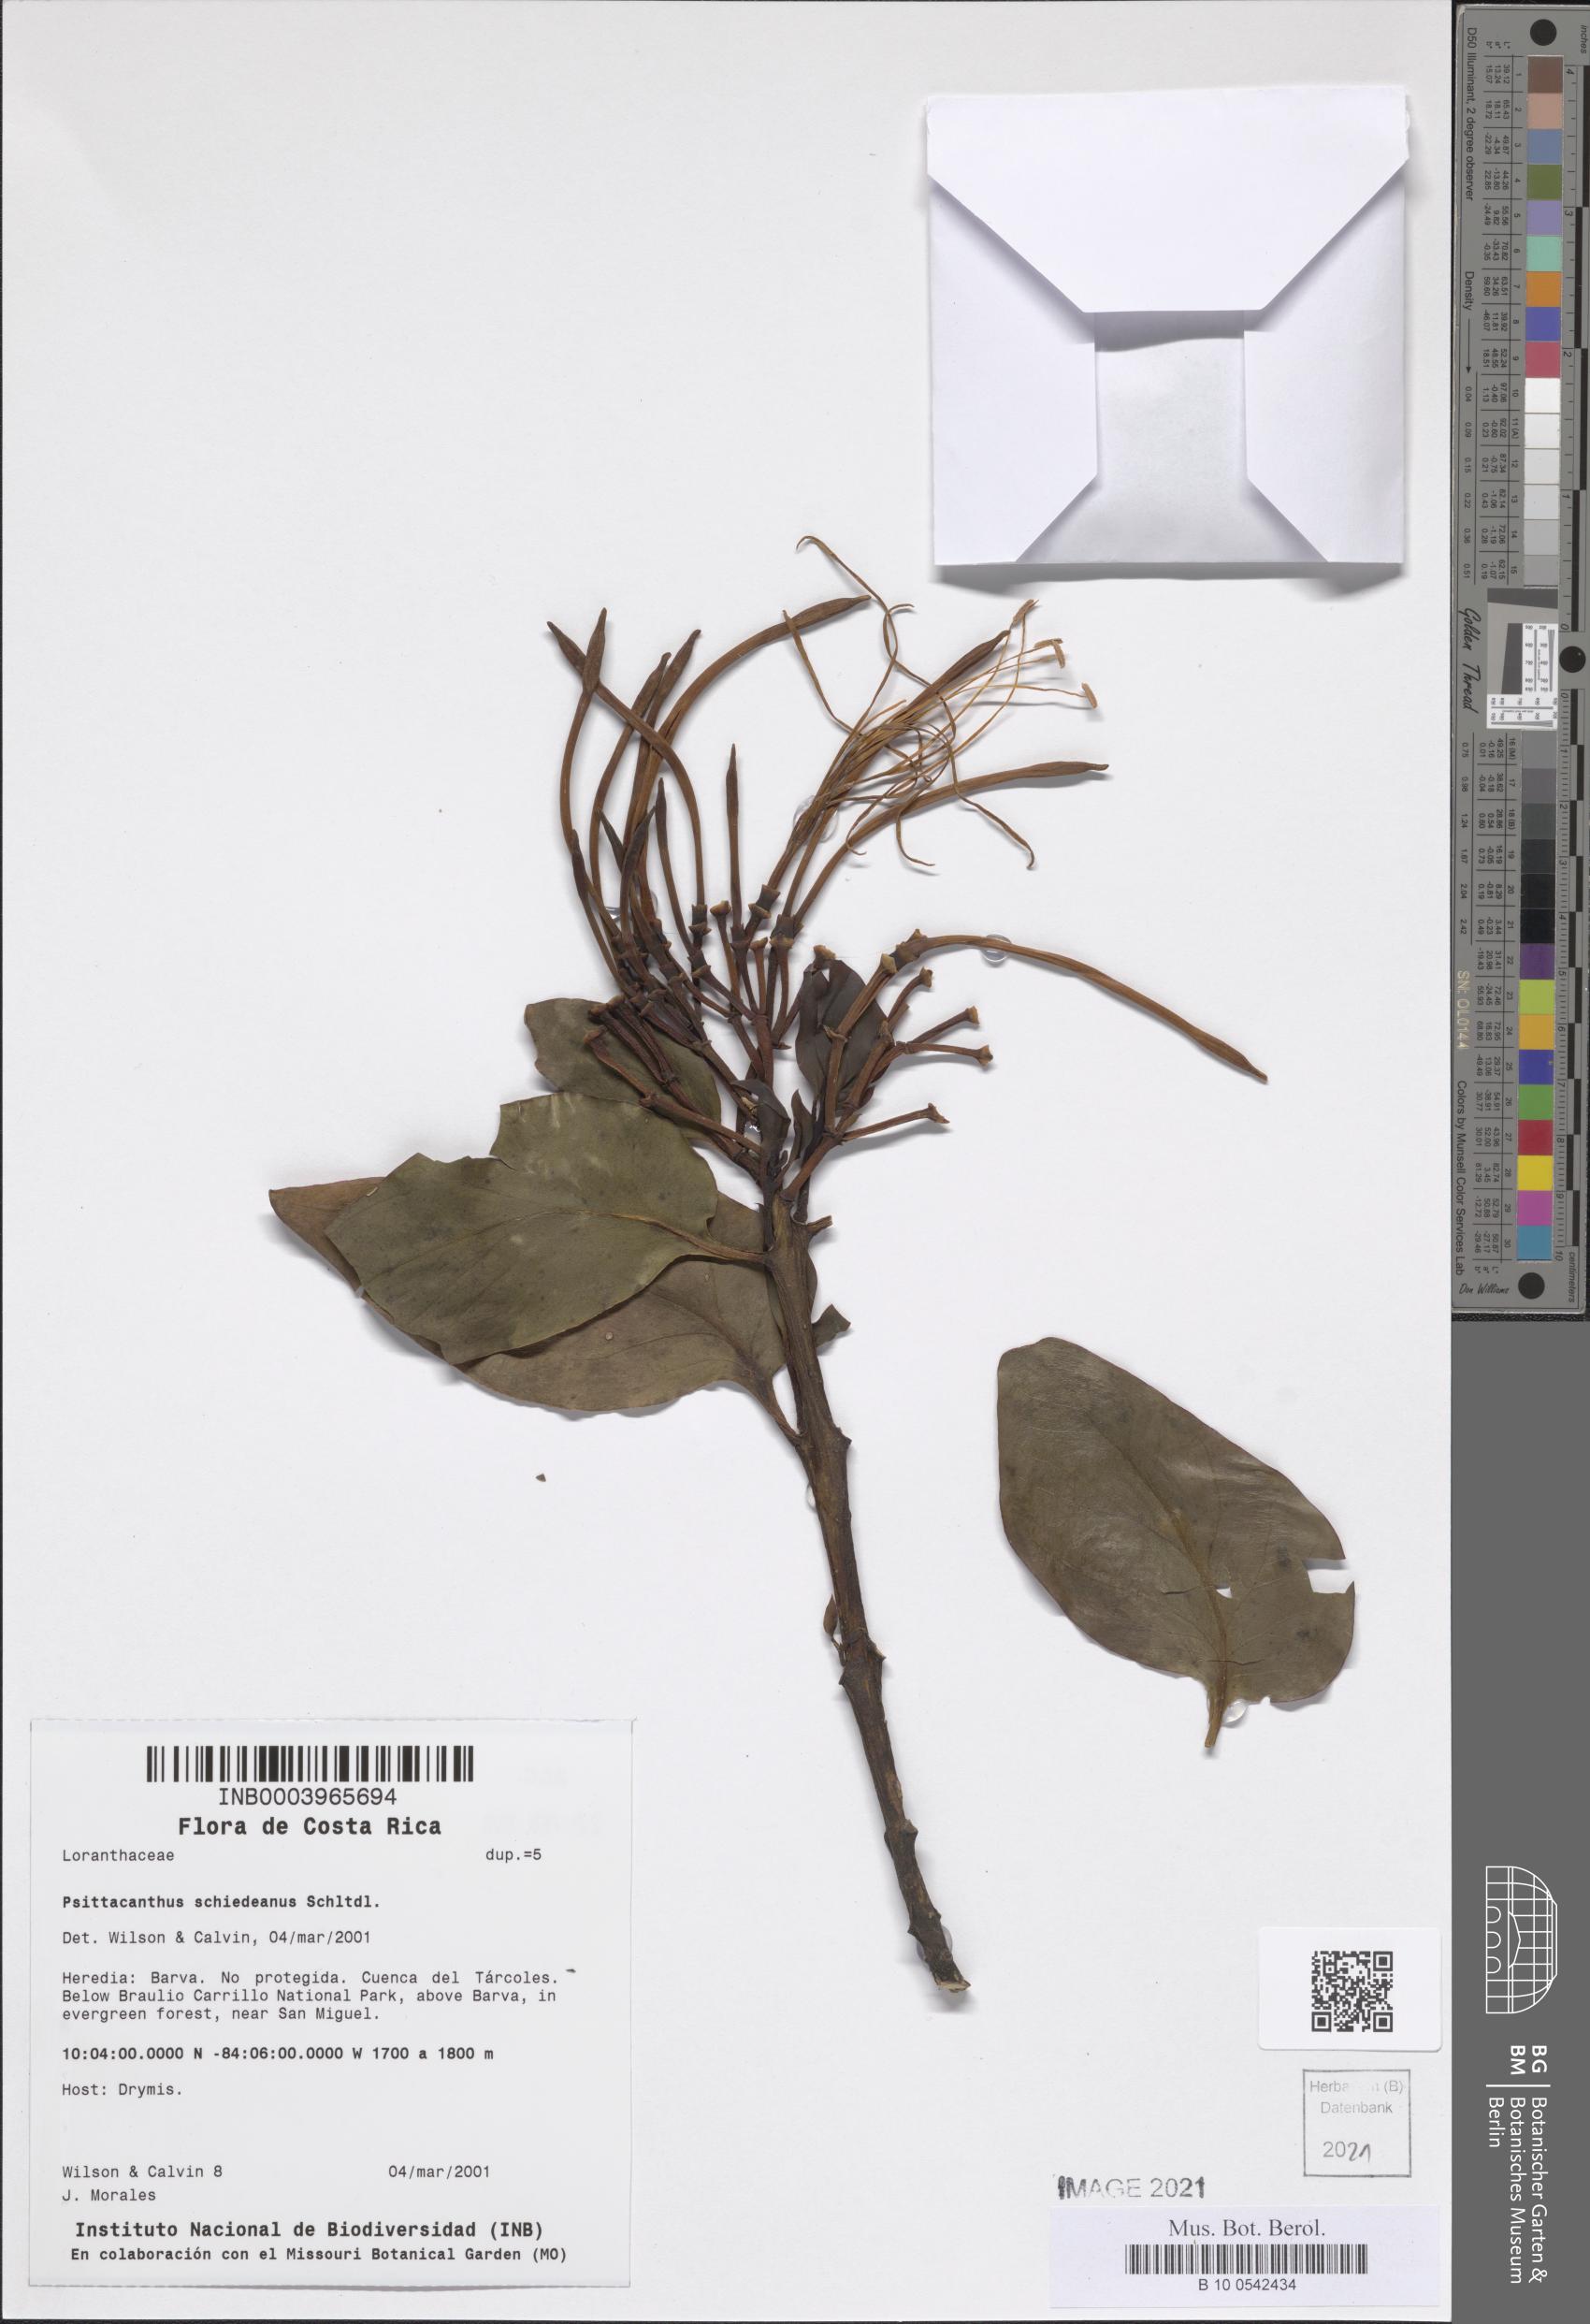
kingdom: Plantae
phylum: Tracheophyta
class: Magnoliopsida
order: Santalales
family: Loranthaceae
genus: Psittacanthus
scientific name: Psittacanthus schiedeanus
